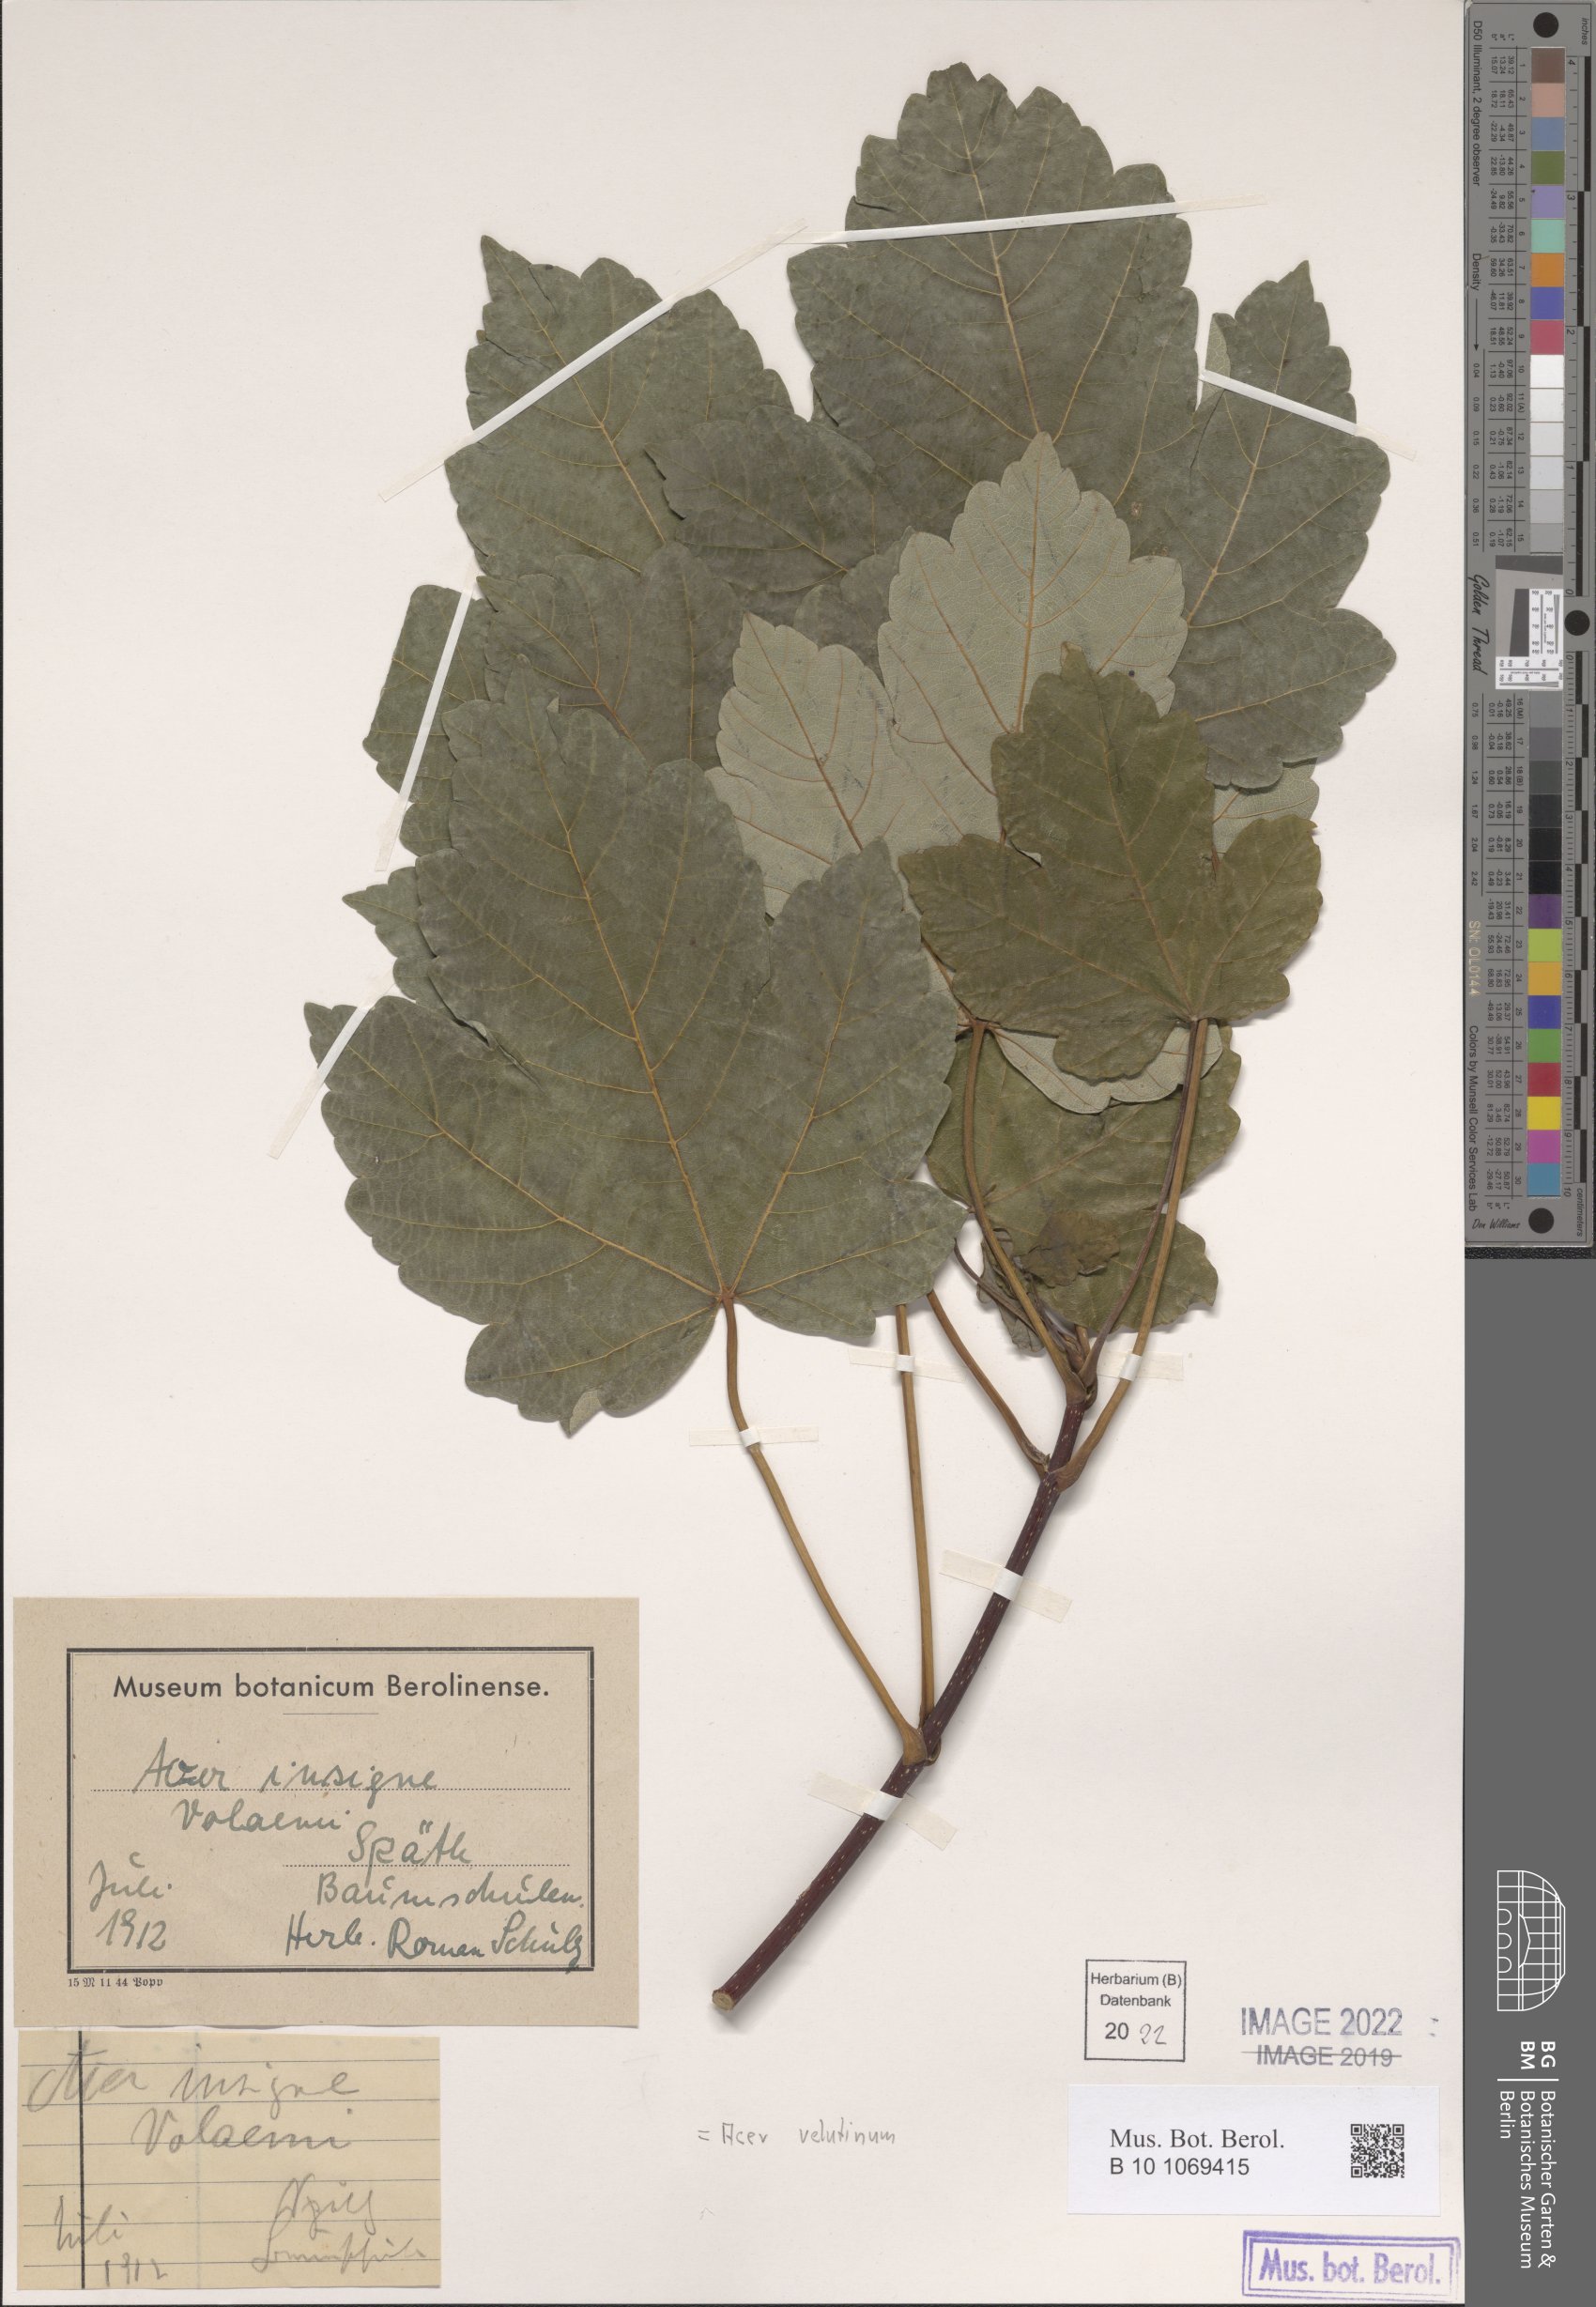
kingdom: Plantae
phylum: Tracheophyta
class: Magnoliopsida
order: Sapindales
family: Sapindaceae
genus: Acer
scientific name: Acer velutinum
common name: Velvet maple
